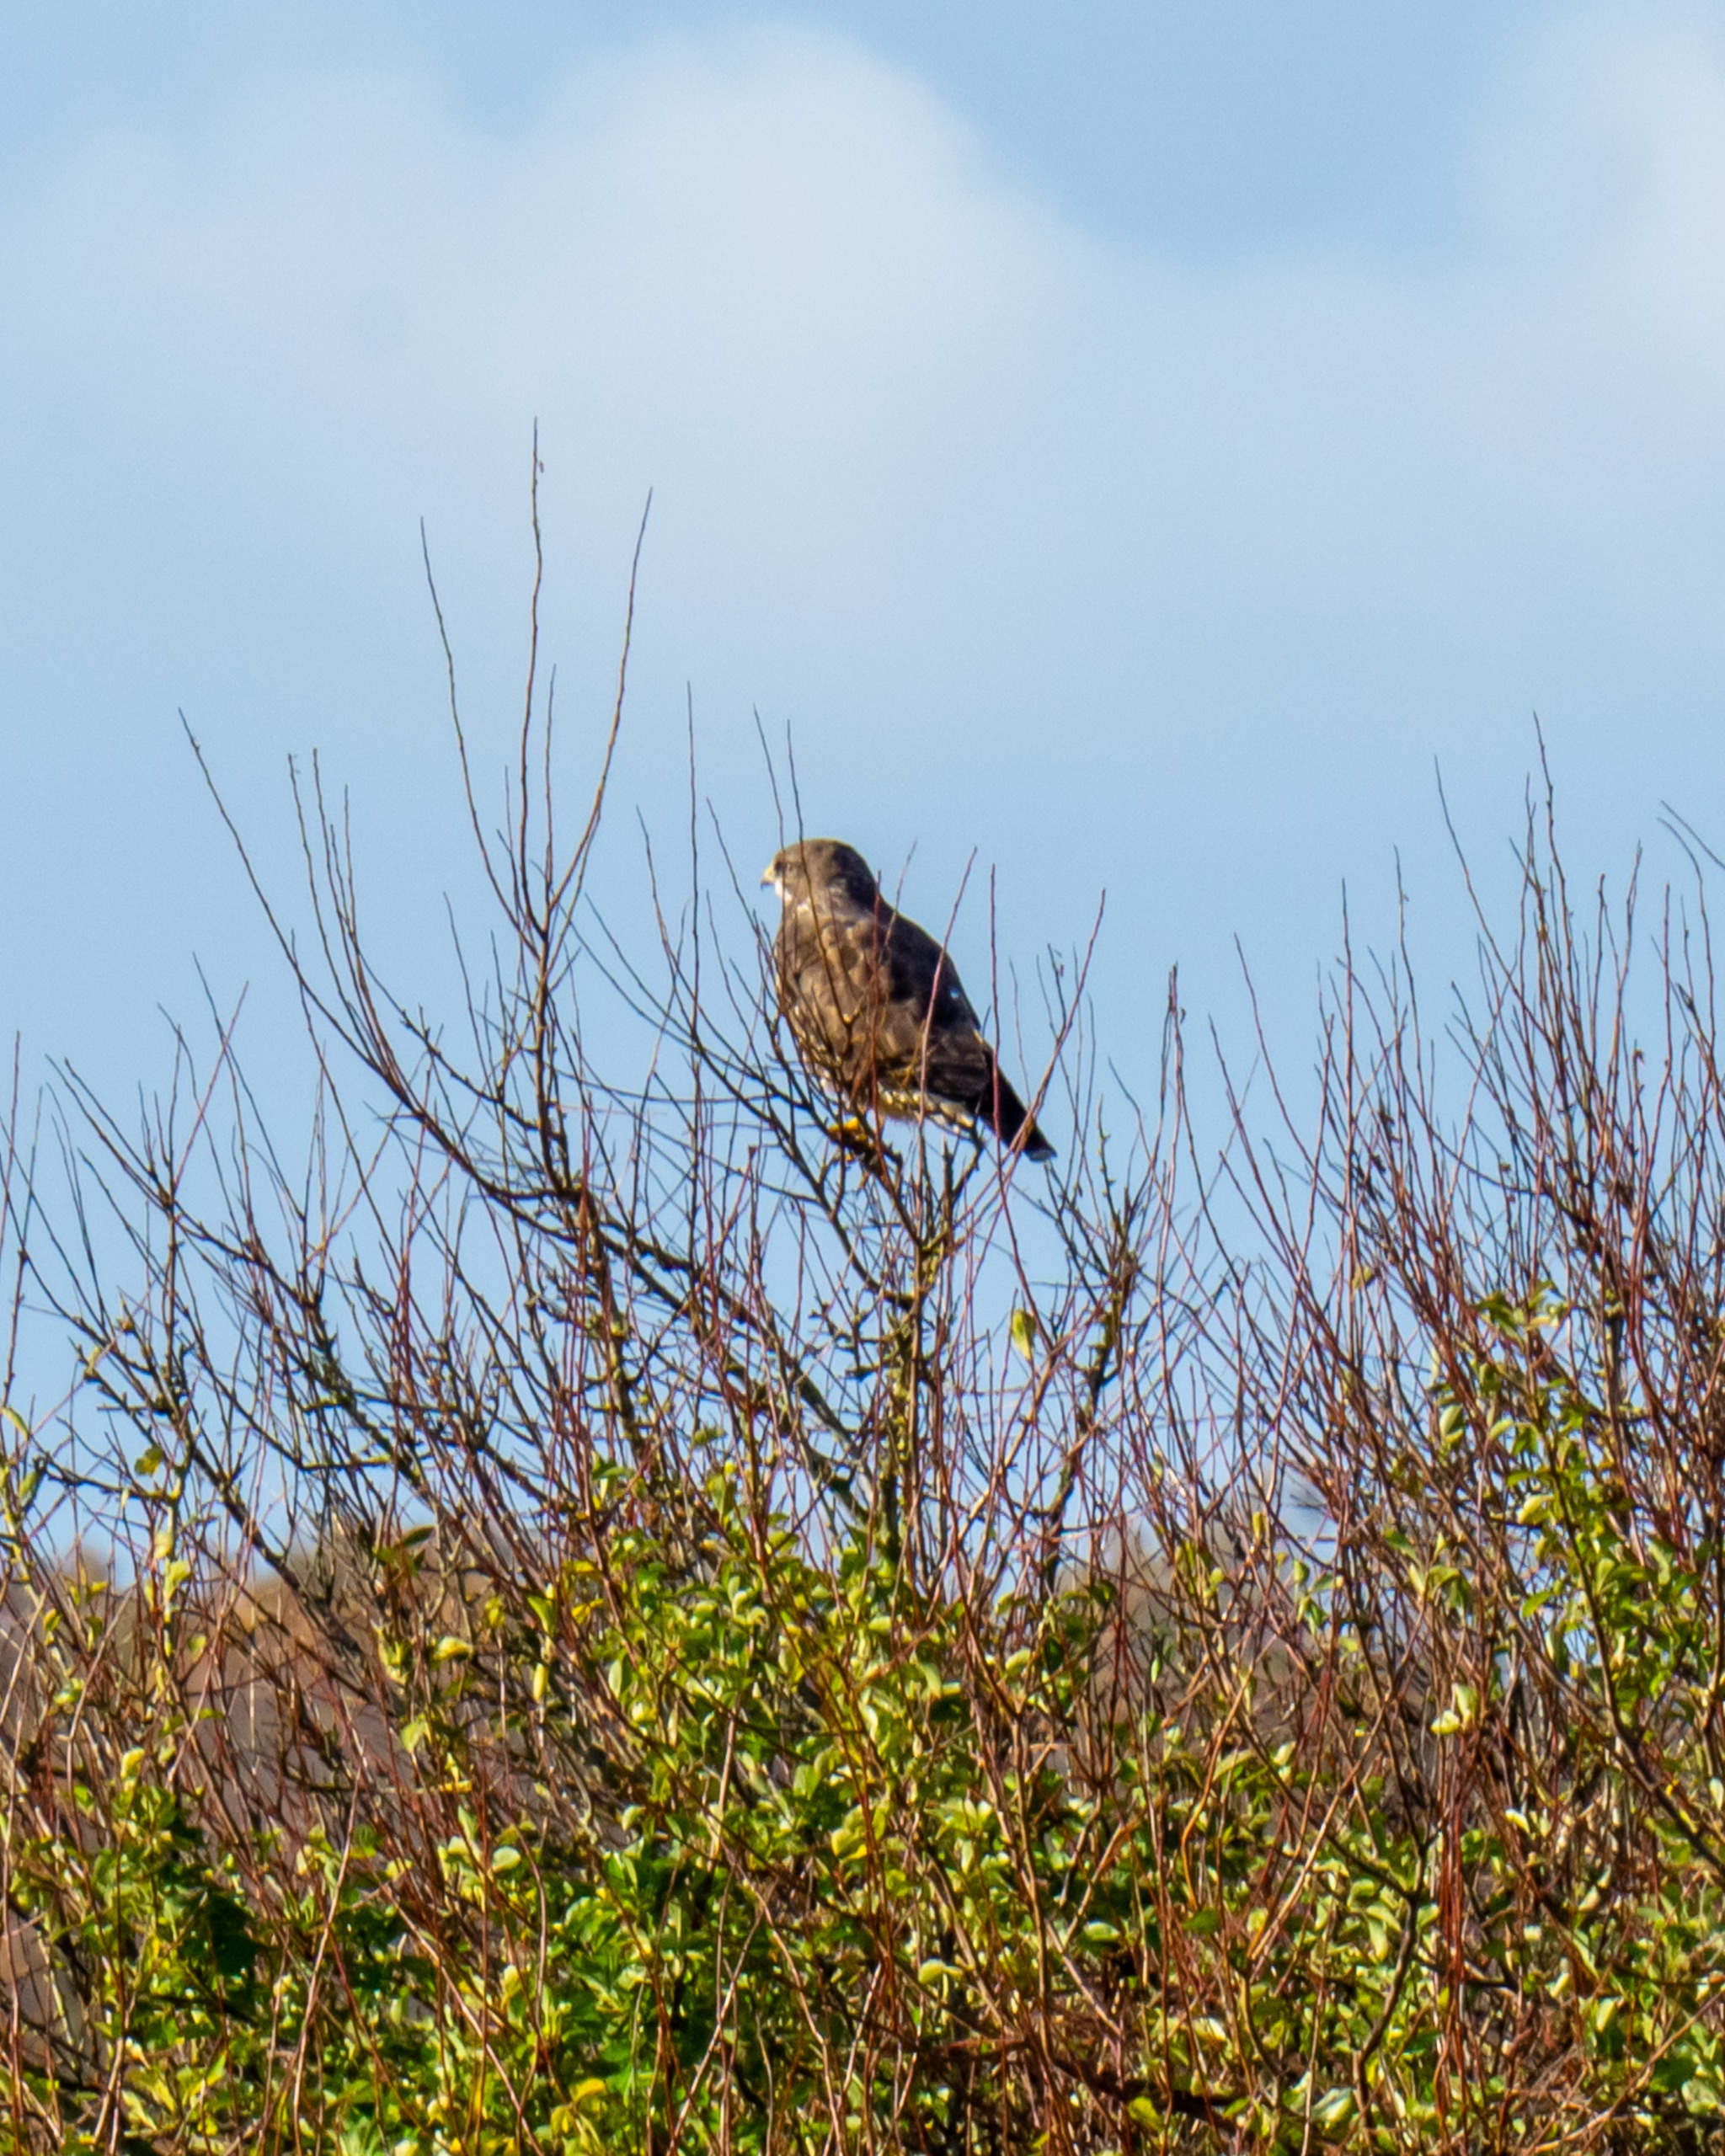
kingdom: Animalia
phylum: Chordata
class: Aves
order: Accipitriformes
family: Accipitridae
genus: Buteo
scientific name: Buteo buteo
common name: Musvåge
